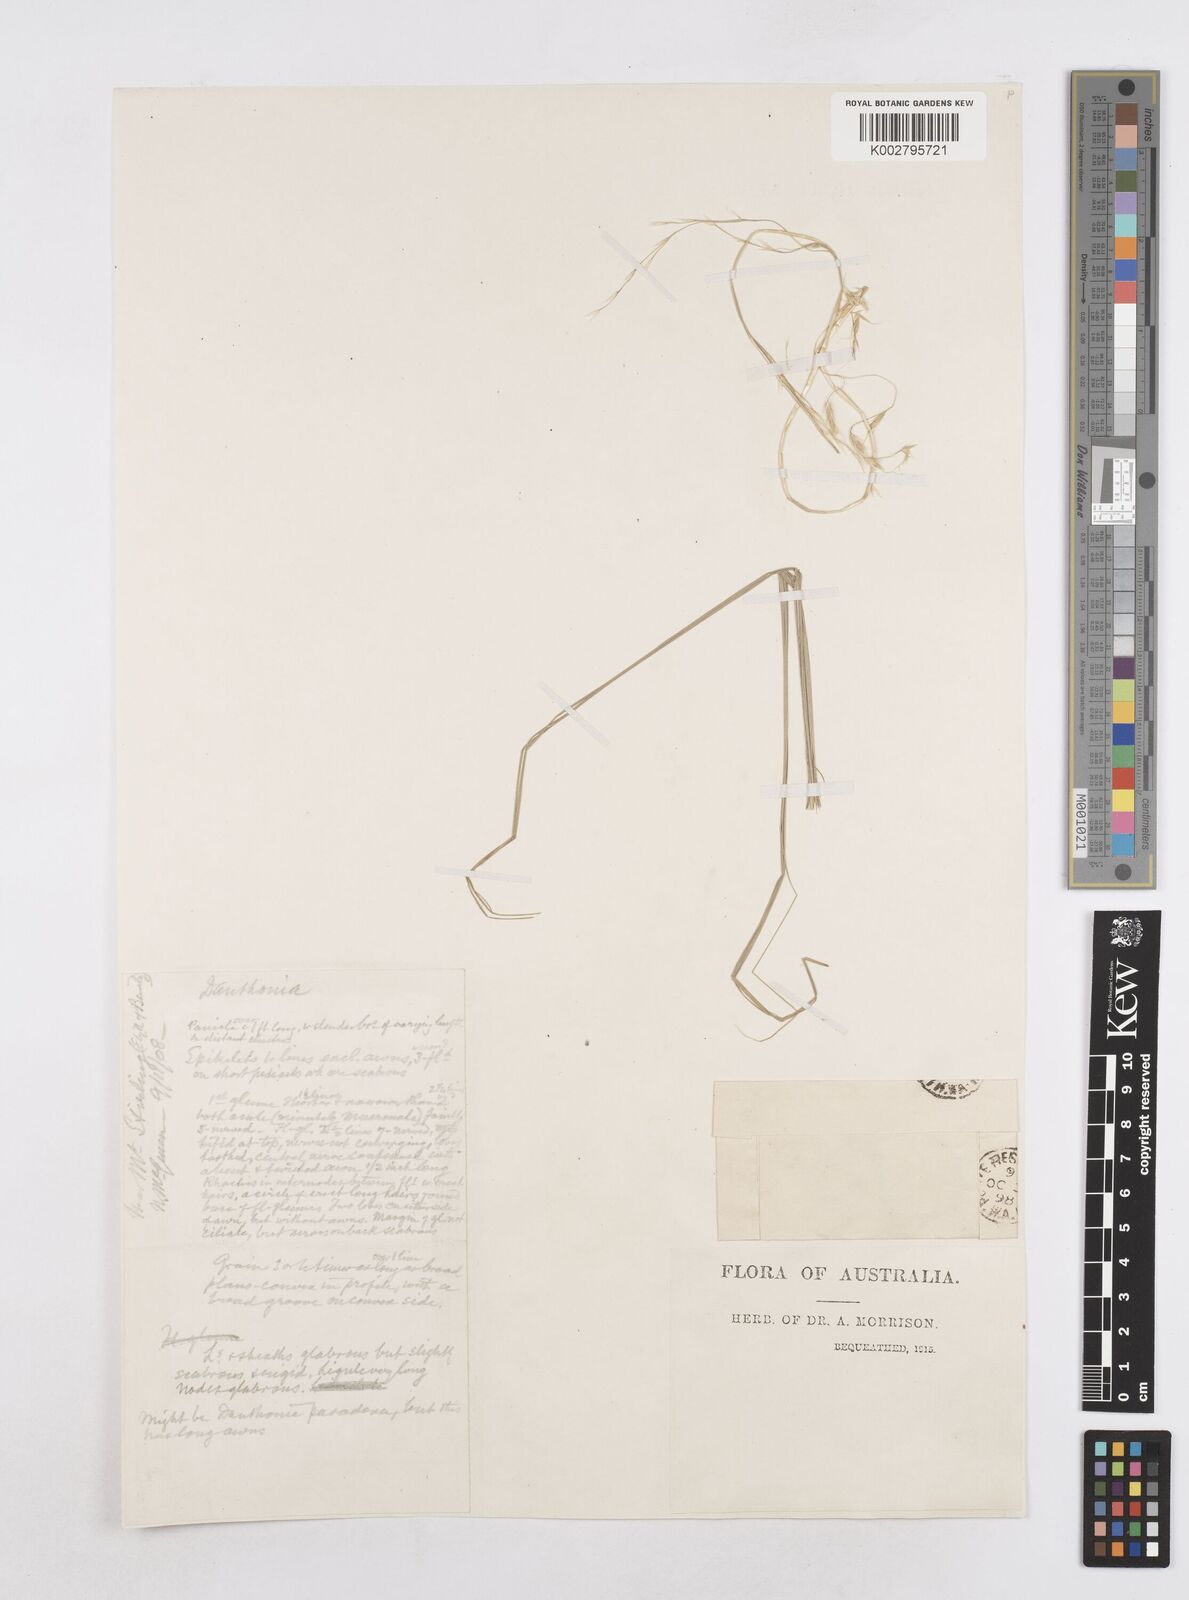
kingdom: Plantae
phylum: Tracheophyta
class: Liliopsida
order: Poales
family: Poaceae
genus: Helictotrichon
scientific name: Helictotrichon
